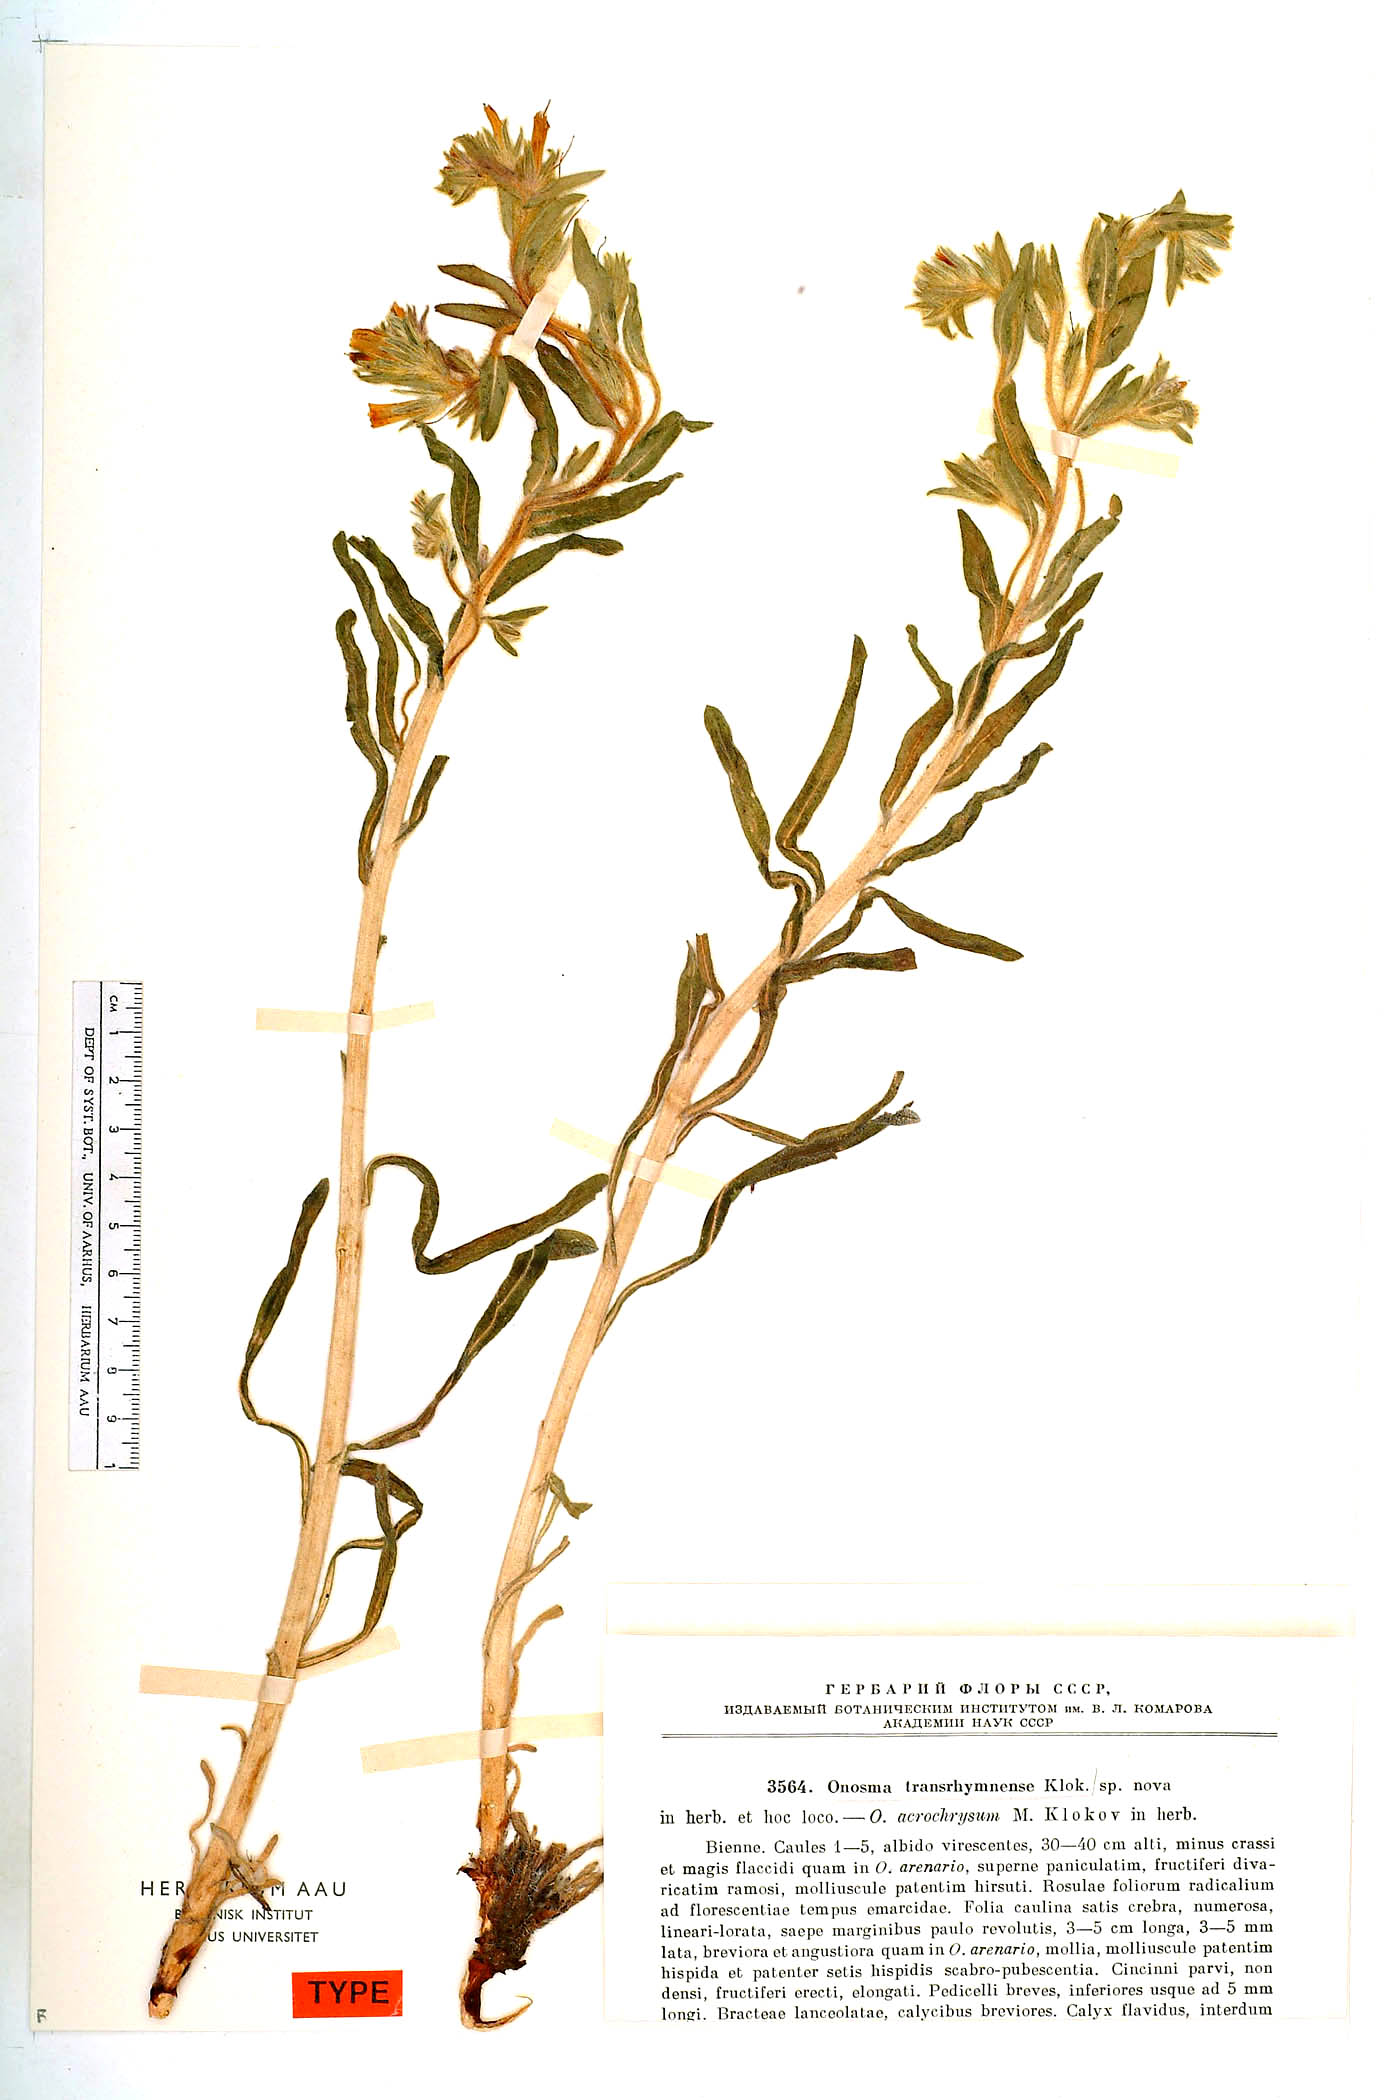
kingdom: Plantae
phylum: Tracheophyta
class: Magnoliopsida
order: Boraginales
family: Boraginaceae
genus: Onosma
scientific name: Onosma setosa
